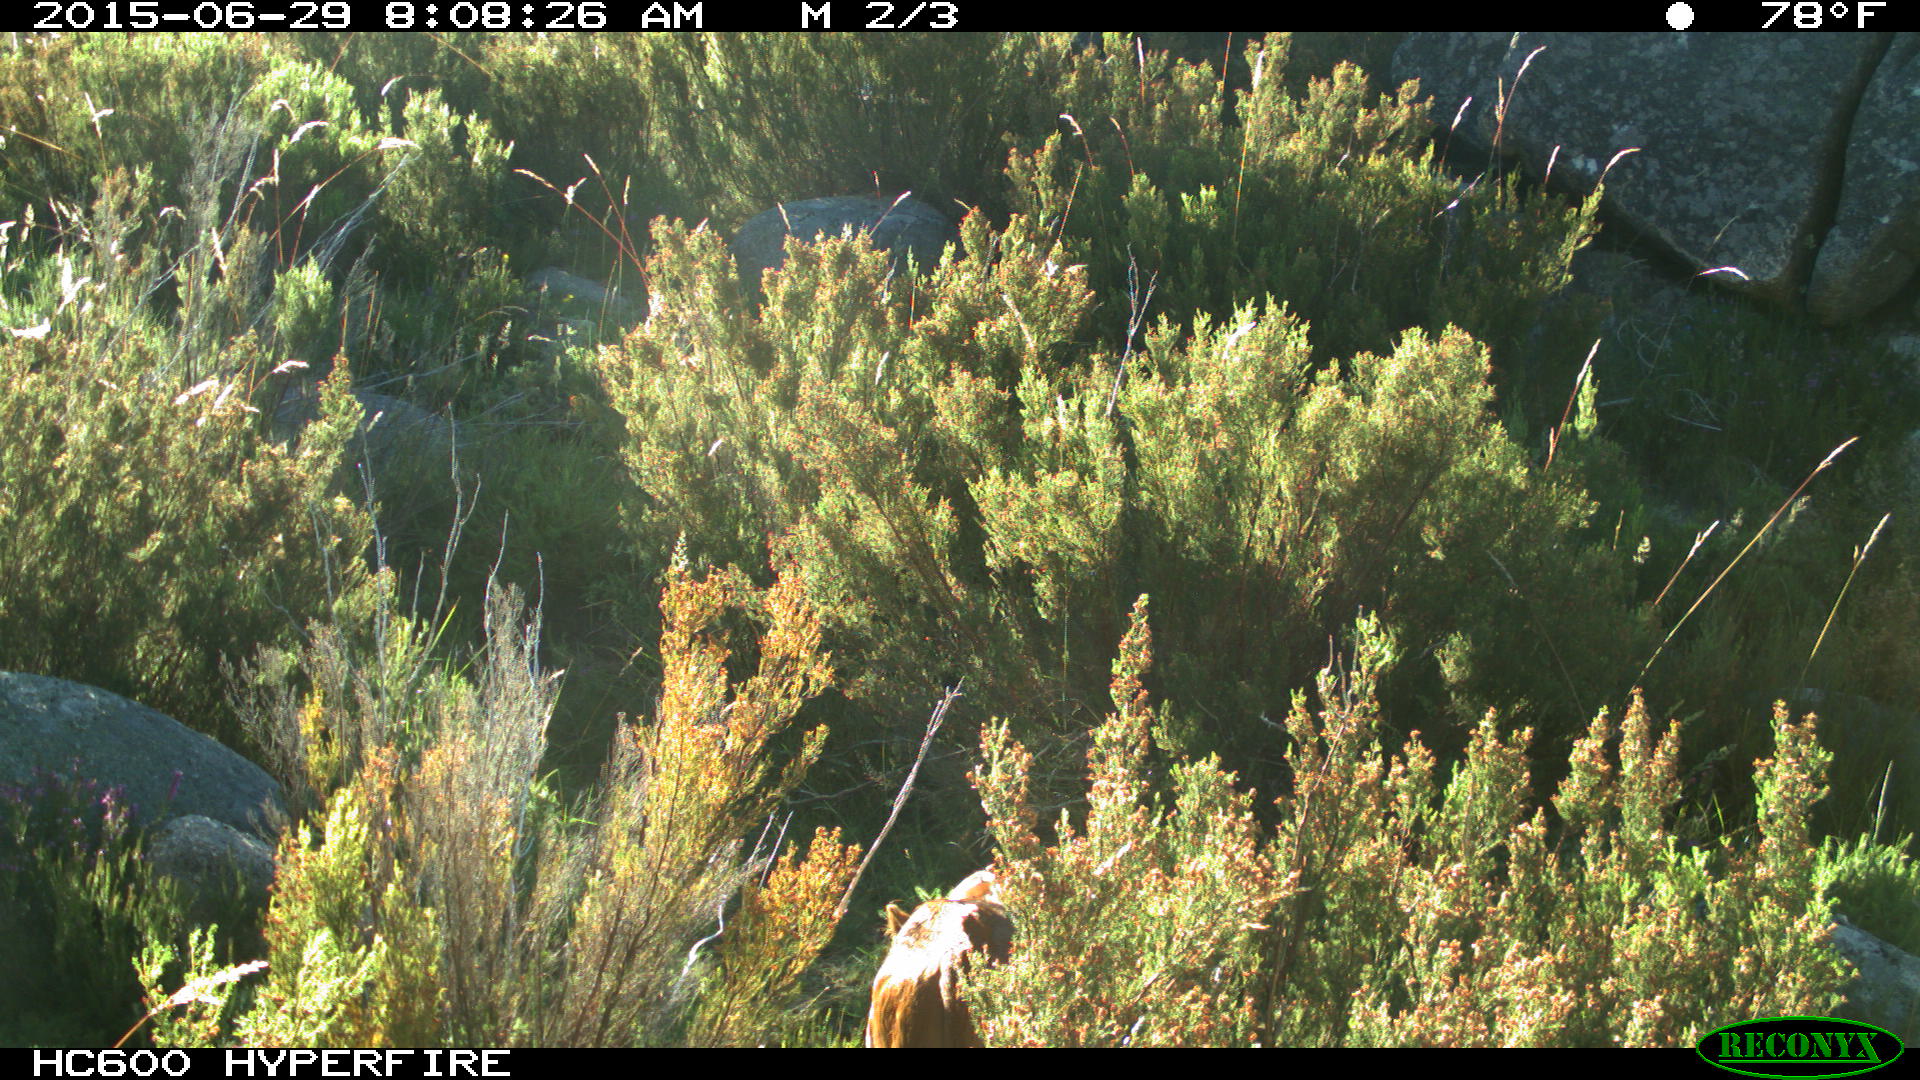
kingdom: Animalia
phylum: Chordata
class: Mammalia
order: Artiodactyla
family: Bovidae
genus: Bos
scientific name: Bos taurus
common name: Domesticated cattle
